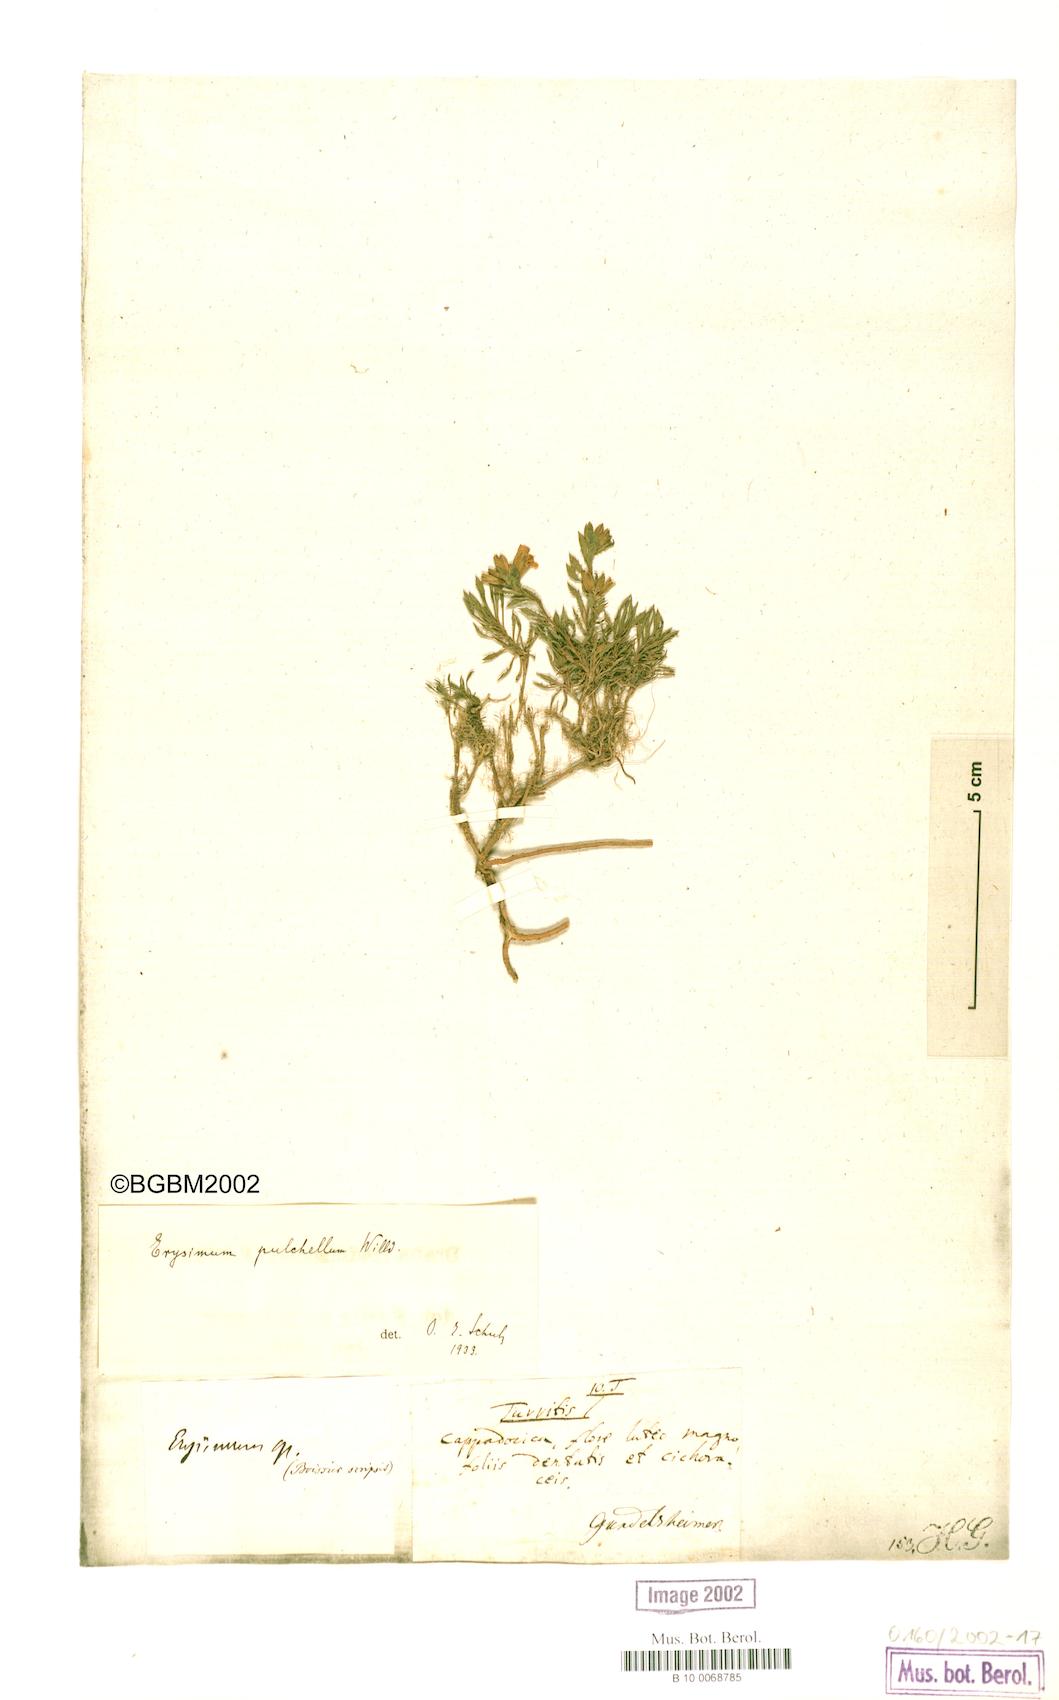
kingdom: Plantae
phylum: Tracheophyta
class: Magnoliopsida
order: Brassicales
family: Brassicaceae
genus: Erysimum
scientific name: Erysimum pulchellum
